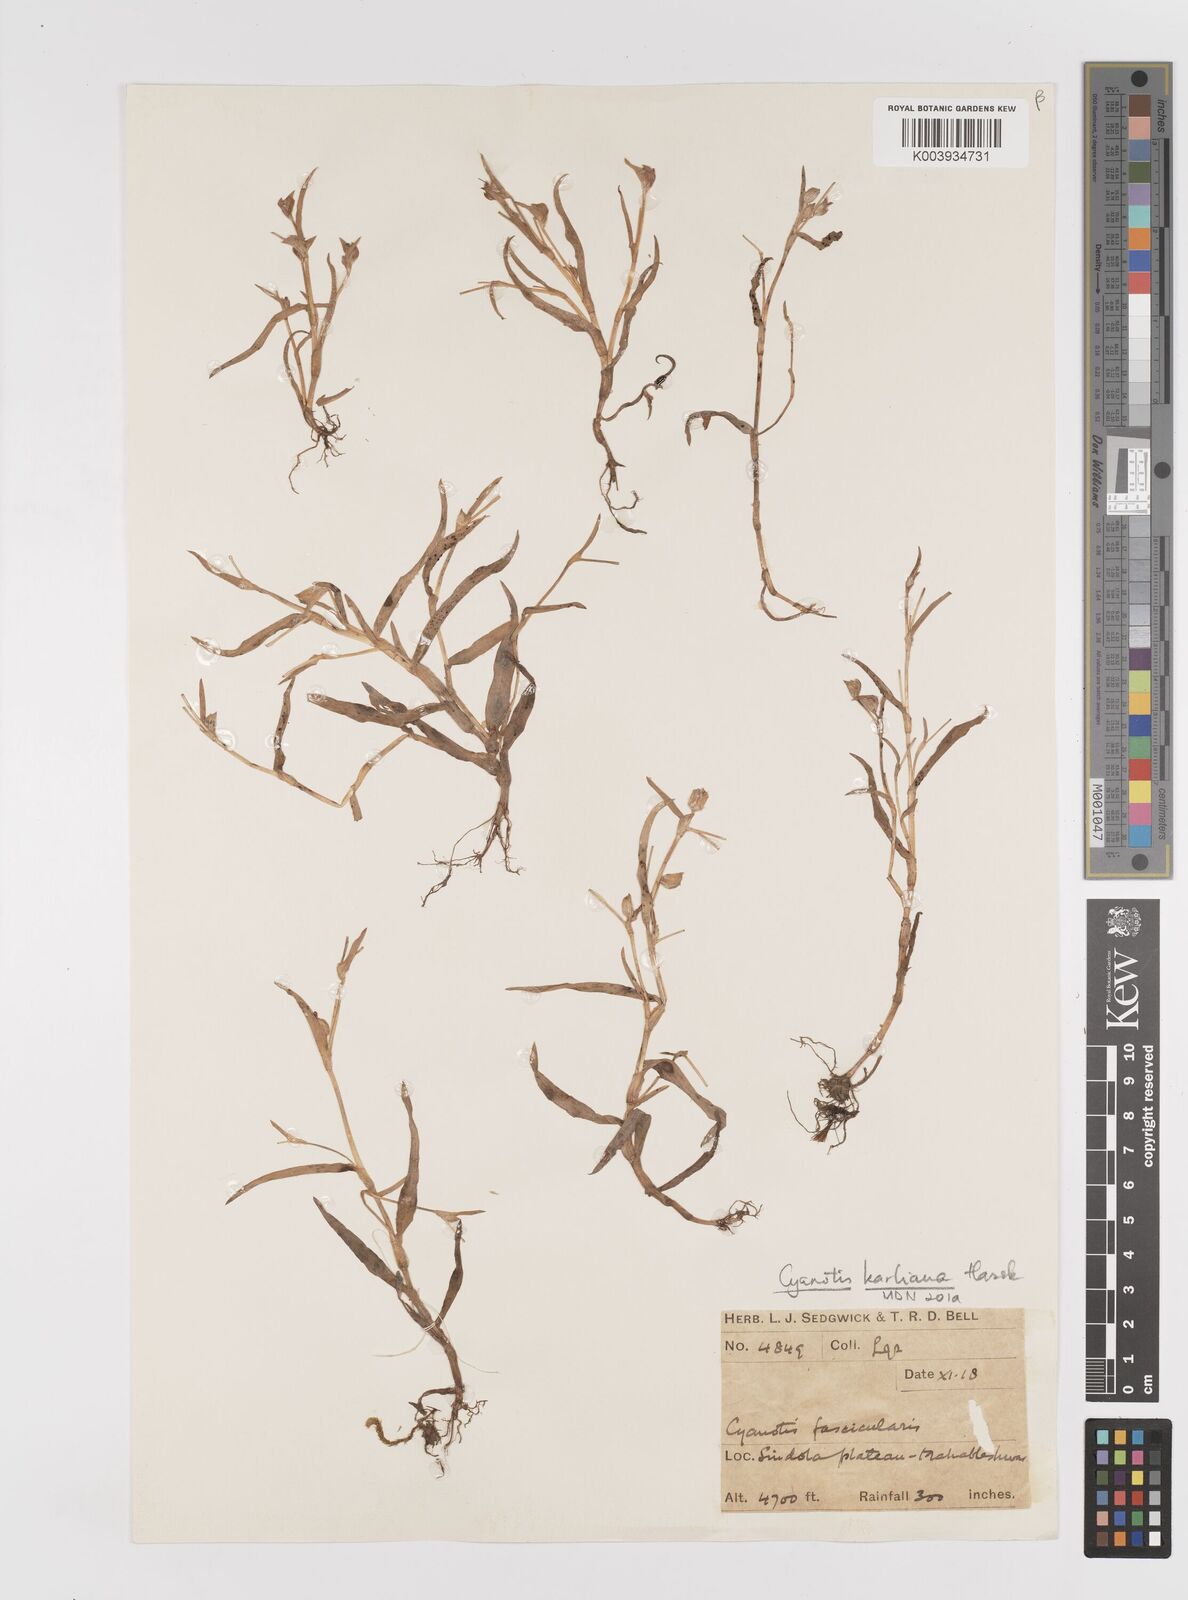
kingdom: Plantae
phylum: Tracheophyta
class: Liliopsida
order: Commelinales
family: Commelinaceae
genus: Cyanotis
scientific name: Cyanotis fasciculata
